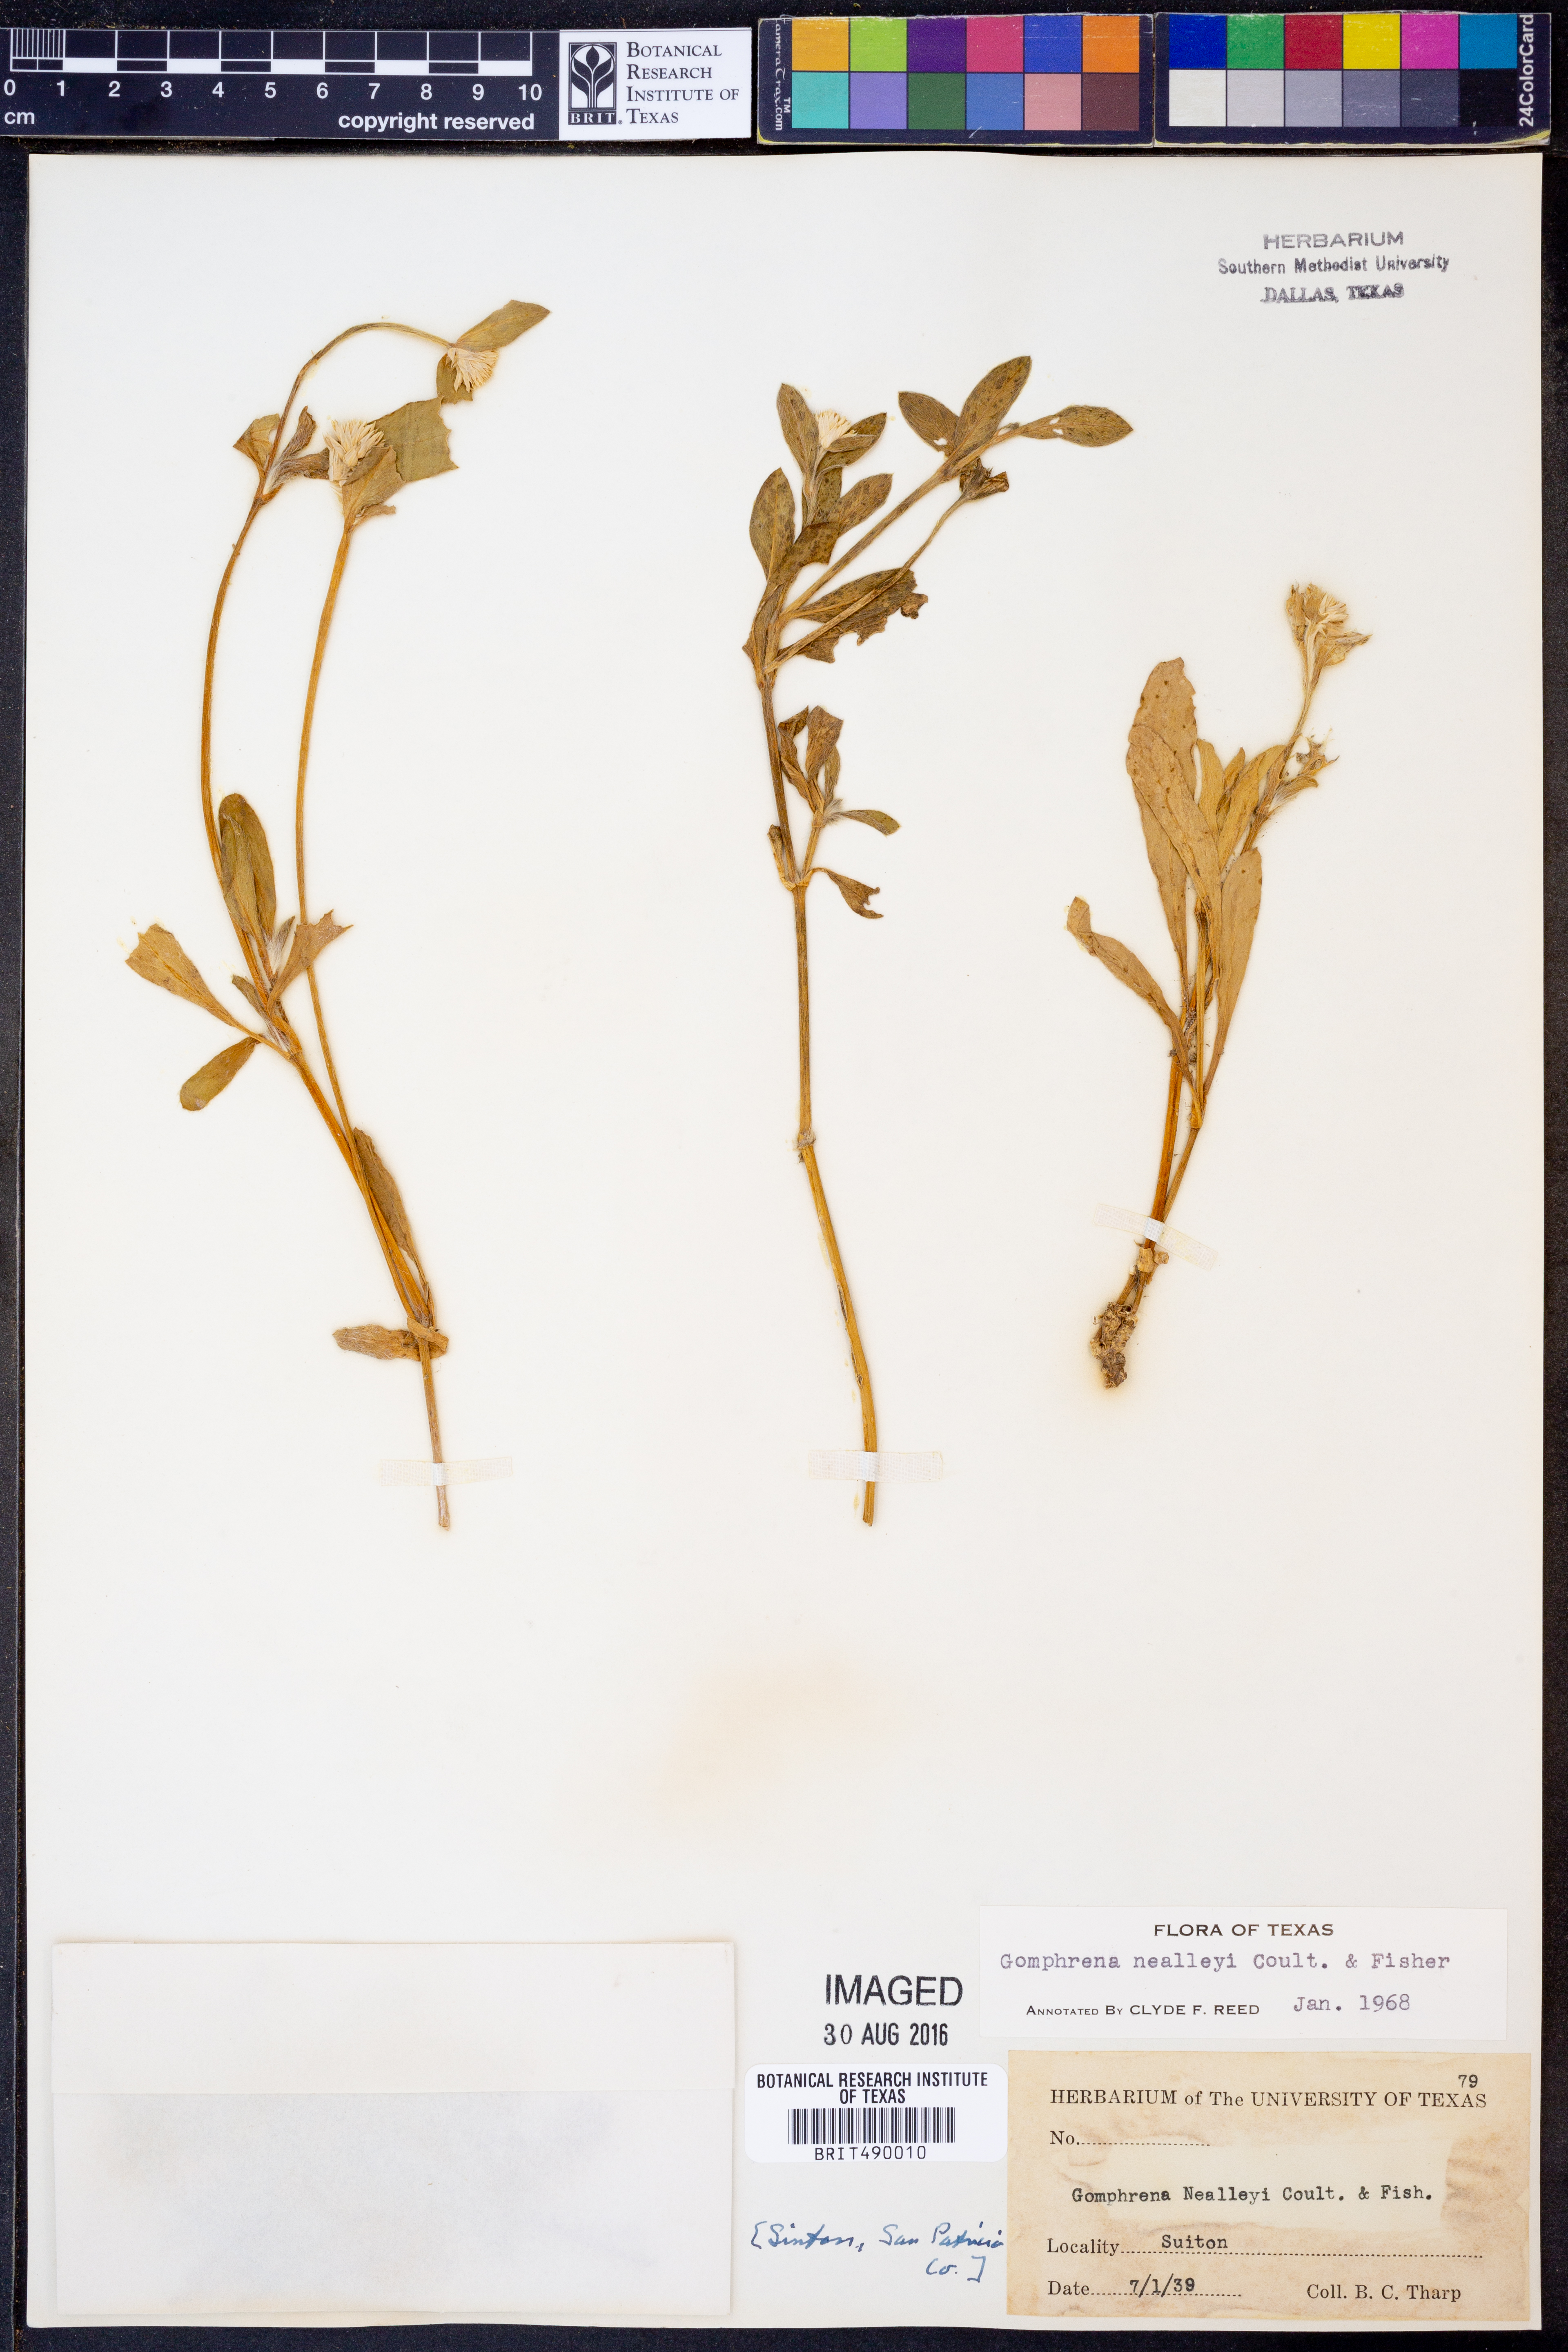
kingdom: Plantae
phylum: Tracheophyta
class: Magnoliopsida
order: Caryophyllales
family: Amaranthaceae
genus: Gomphrena
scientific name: Gomphrena nealleyi
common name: Nealley's globe-amaranth
